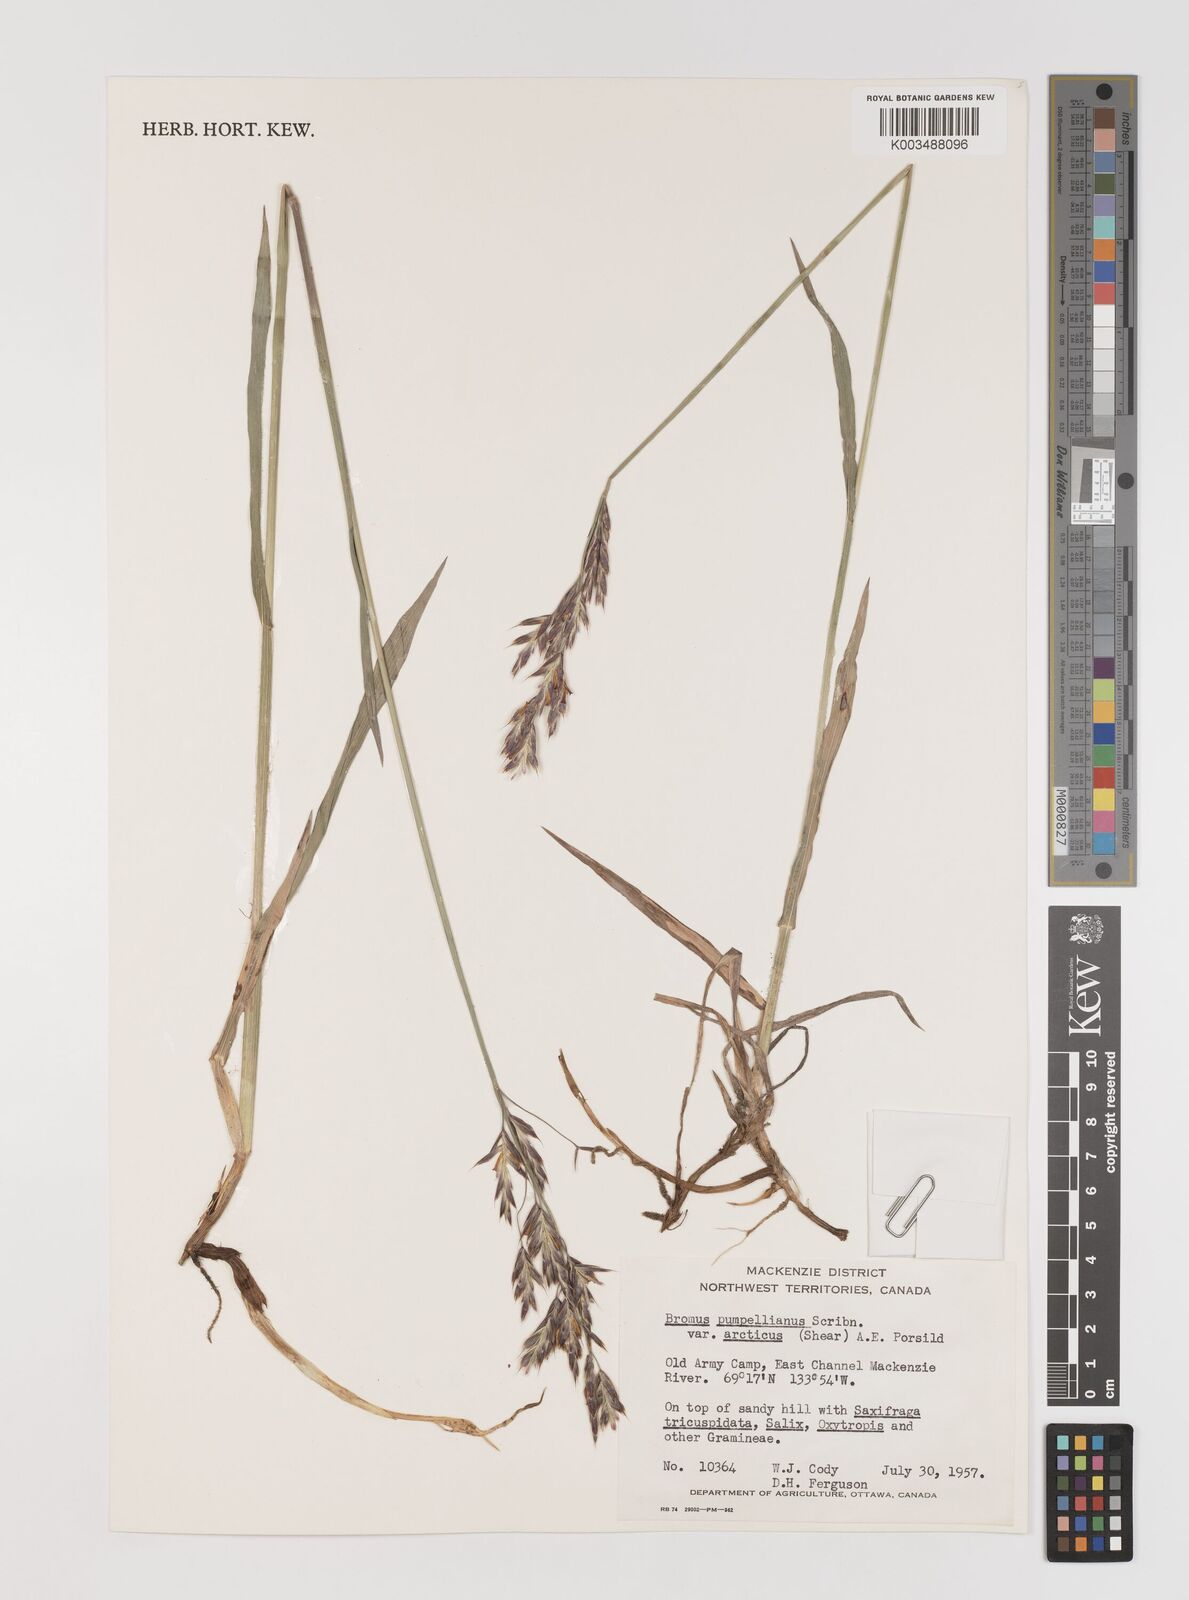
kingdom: Plantae
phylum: Tracheophyta
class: Liliopsida
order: Poales
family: Poaceae
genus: Bromus
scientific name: Bromus pumpellianus
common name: Pumpelly's brome
